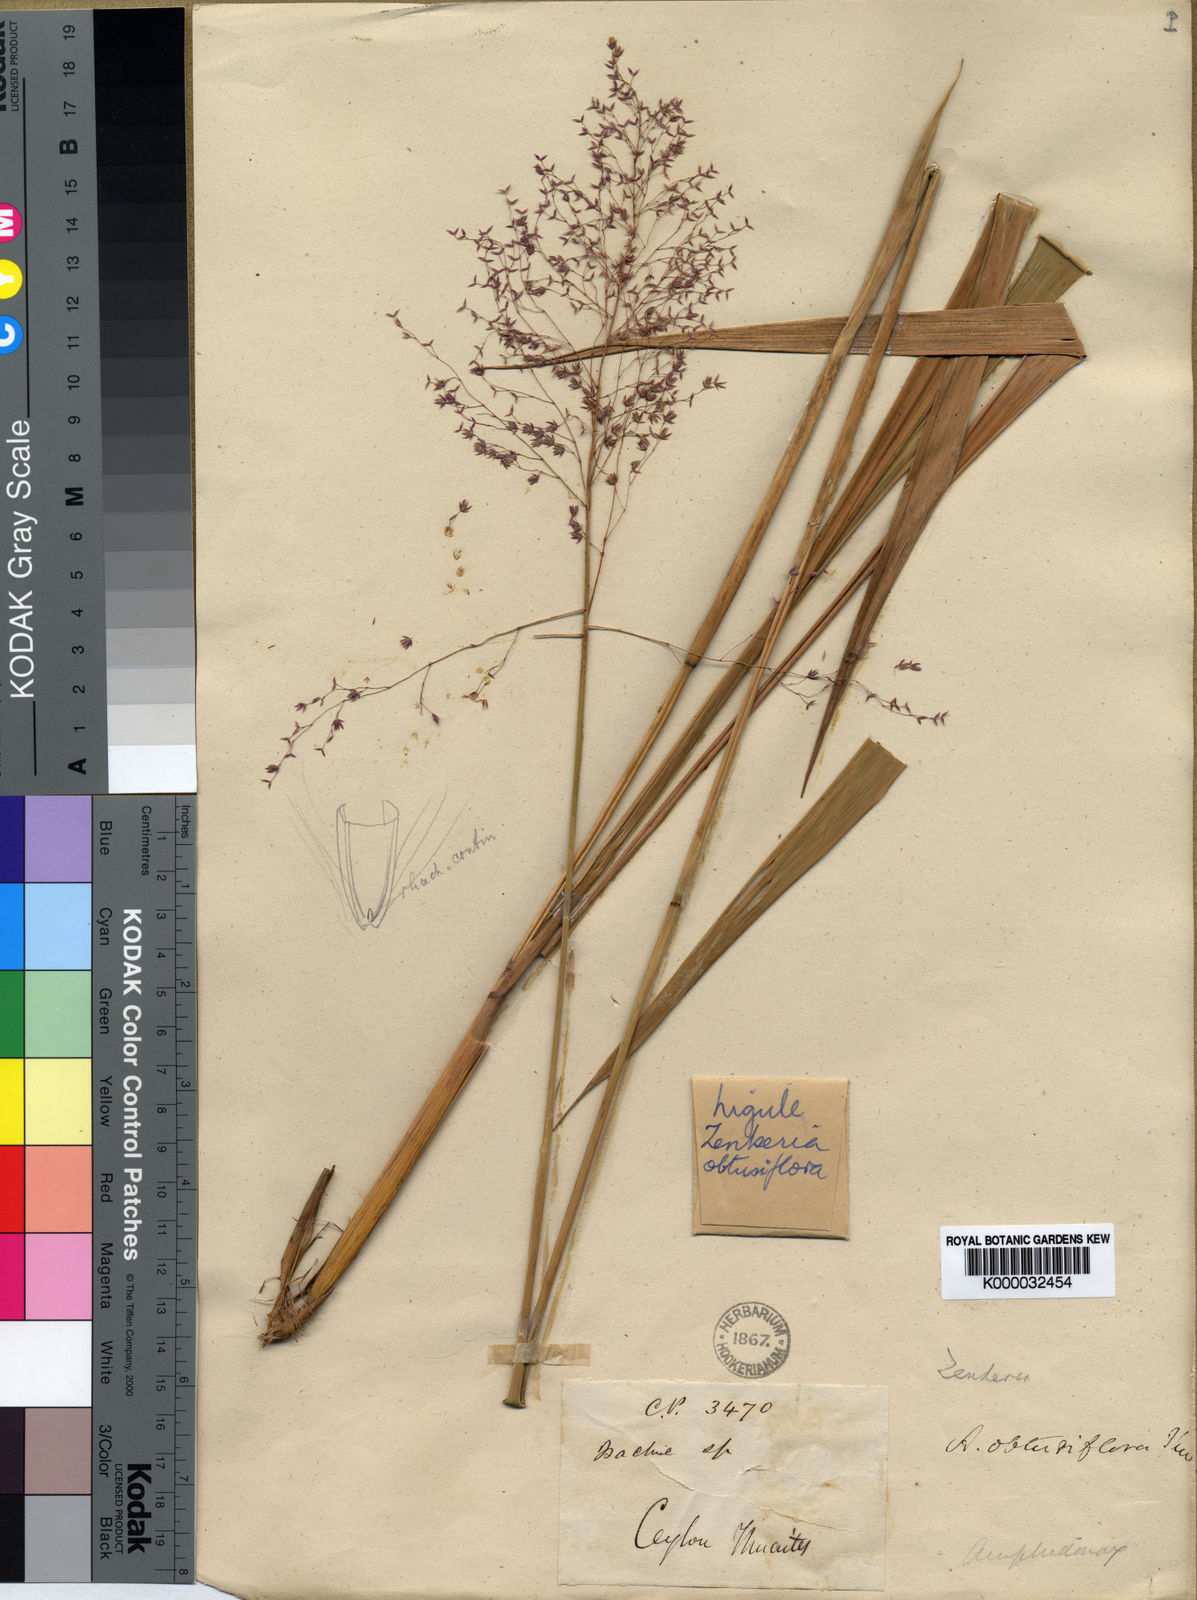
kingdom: Plantae
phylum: Tracheophyta
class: Liliopsida
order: Poales
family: Poaceae
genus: Zenkeria
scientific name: Zenkeria obtusiflora
